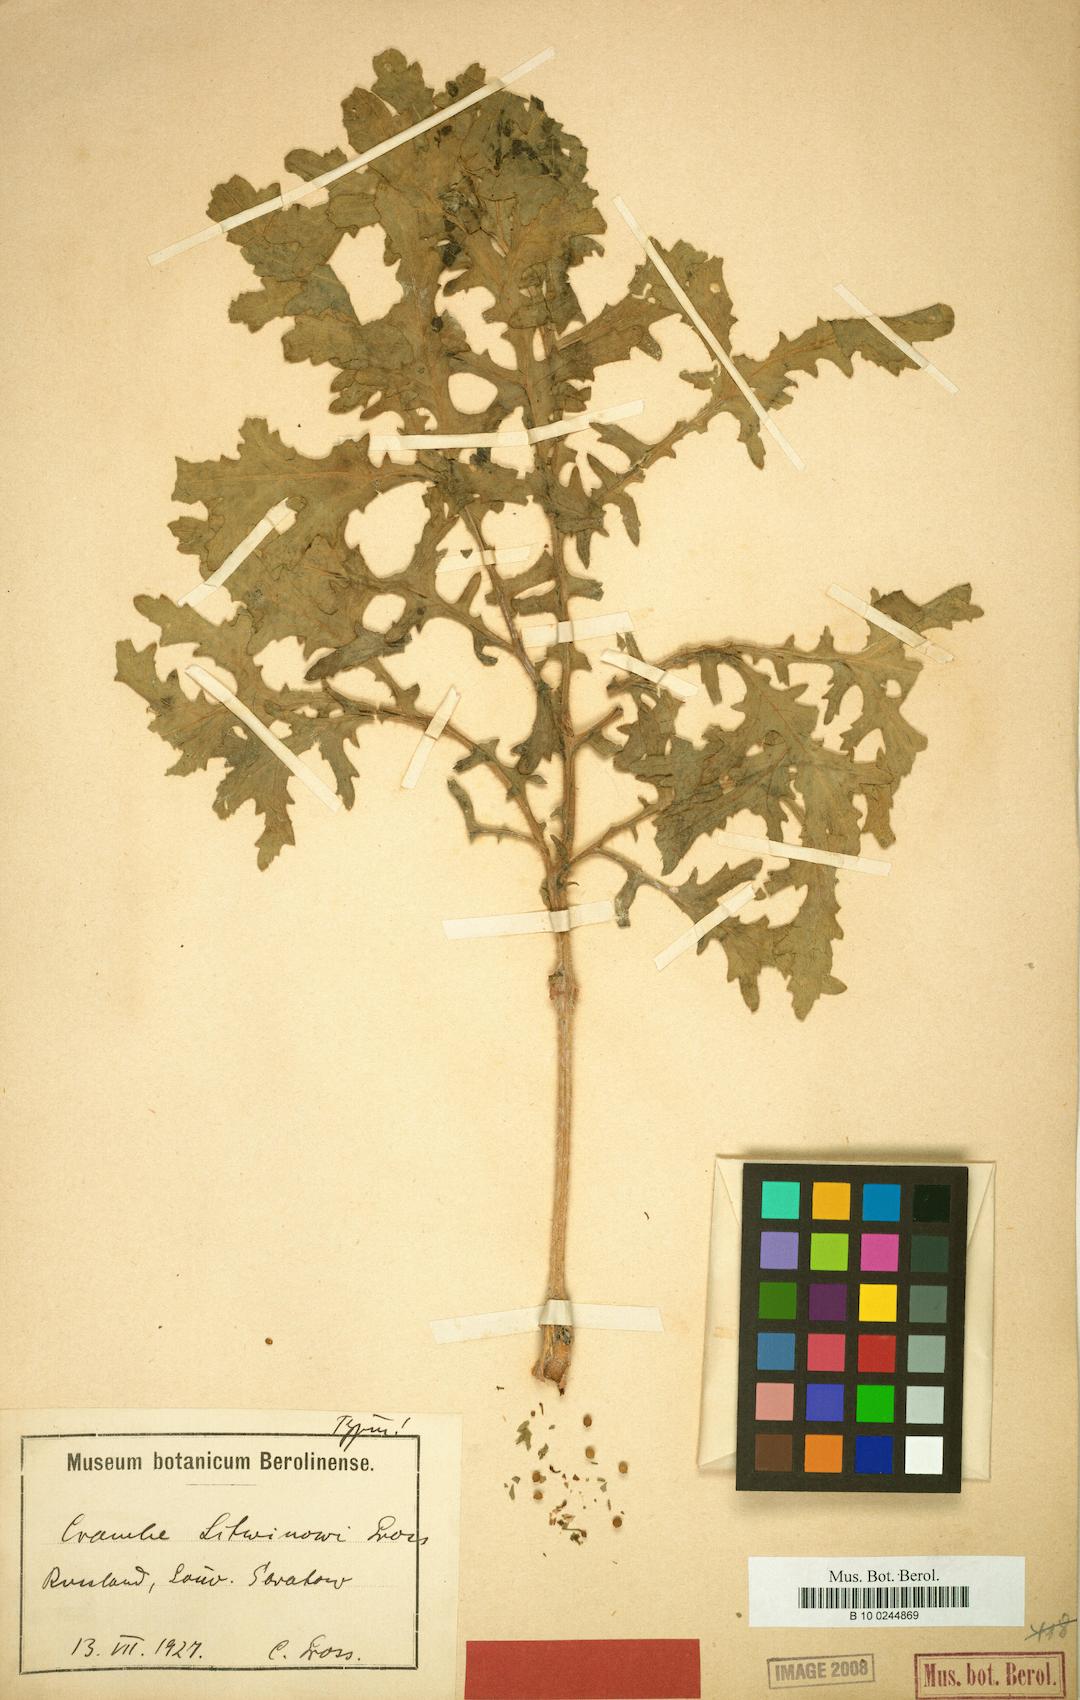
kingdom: Plantae
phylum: Tracheophyta
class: Magnoliopsida
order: Brassicales
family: Brassicaceae
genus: Crambe
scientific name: Crambe tataria
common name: Tartarian breadplant
